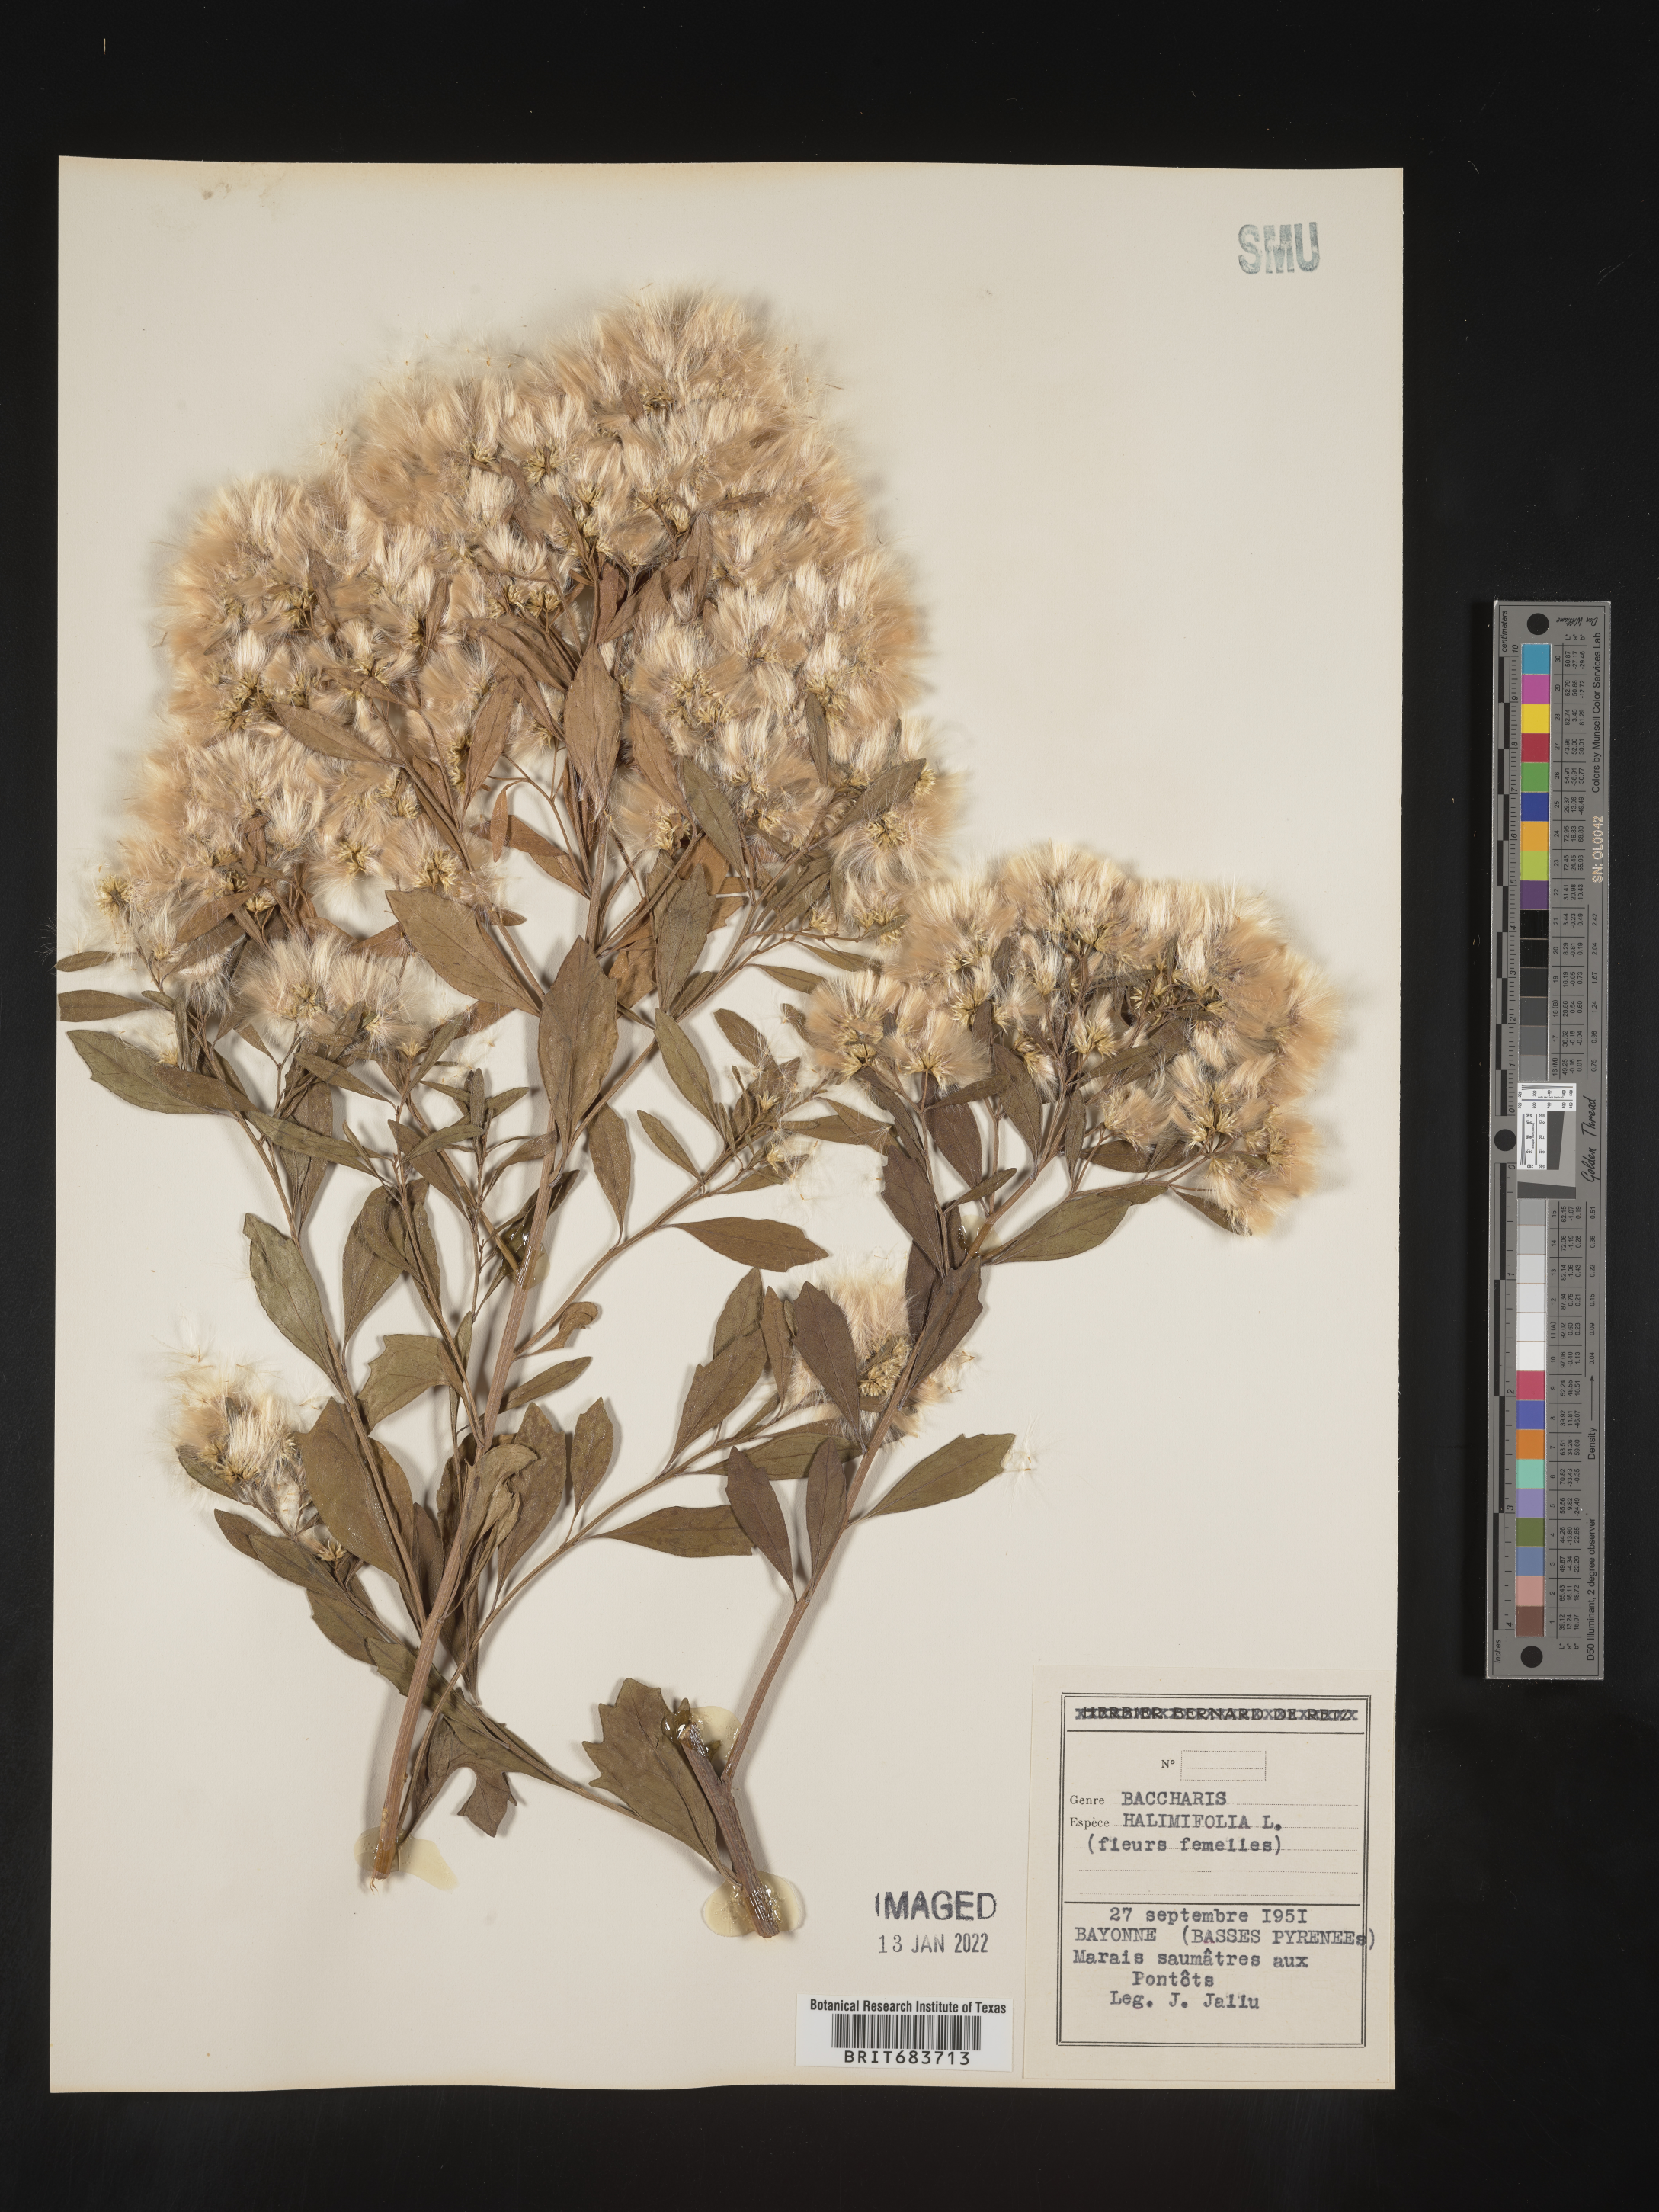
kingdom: Plantae
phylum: Tracheophyta
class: Magnoliopsida
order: Asterales
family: Asteraceae
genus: Baccharis
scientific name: Baccharis
